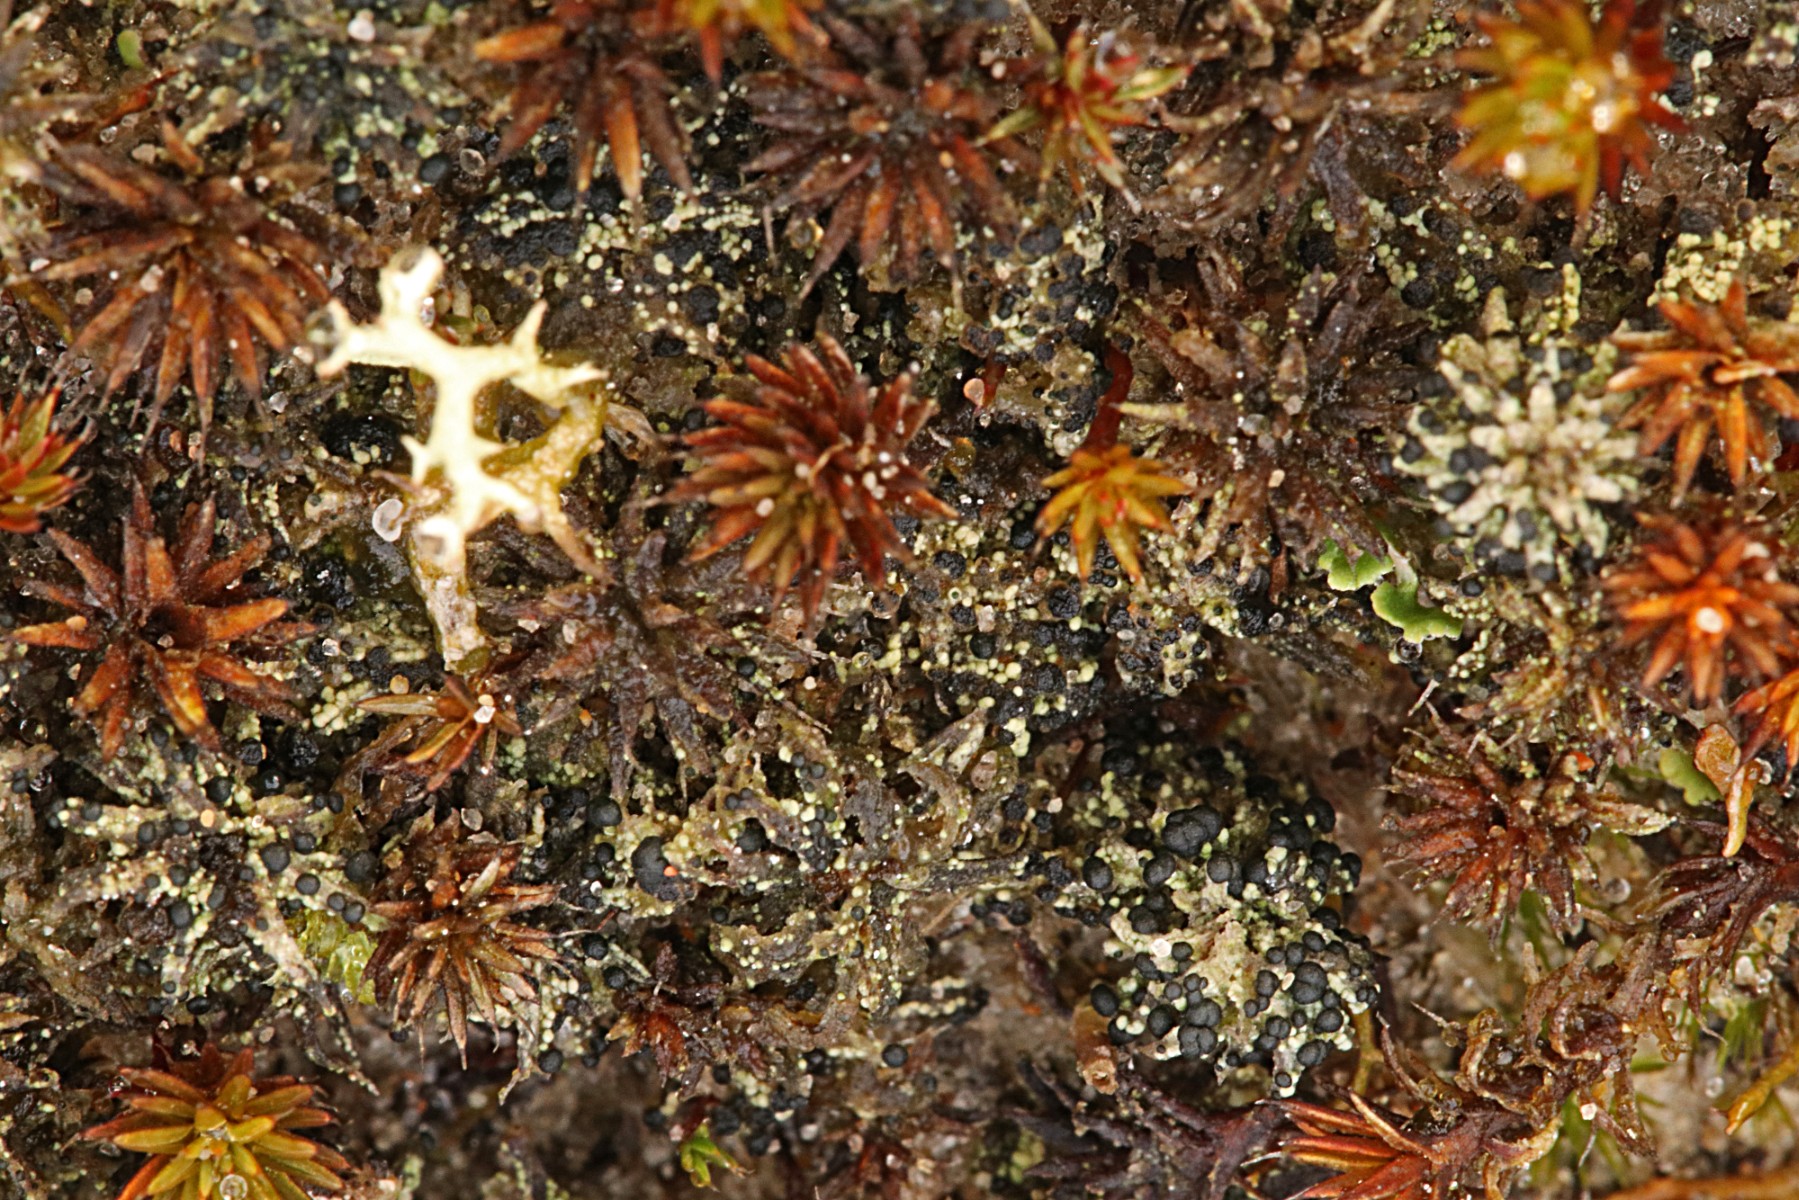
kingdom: Fungi
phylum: Ascomycota
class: Lecanoromycetes
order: Lecanorales
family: Byssolomataceae
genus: Micarea
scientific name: Micarea lignaria
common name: tørve-knaplav
